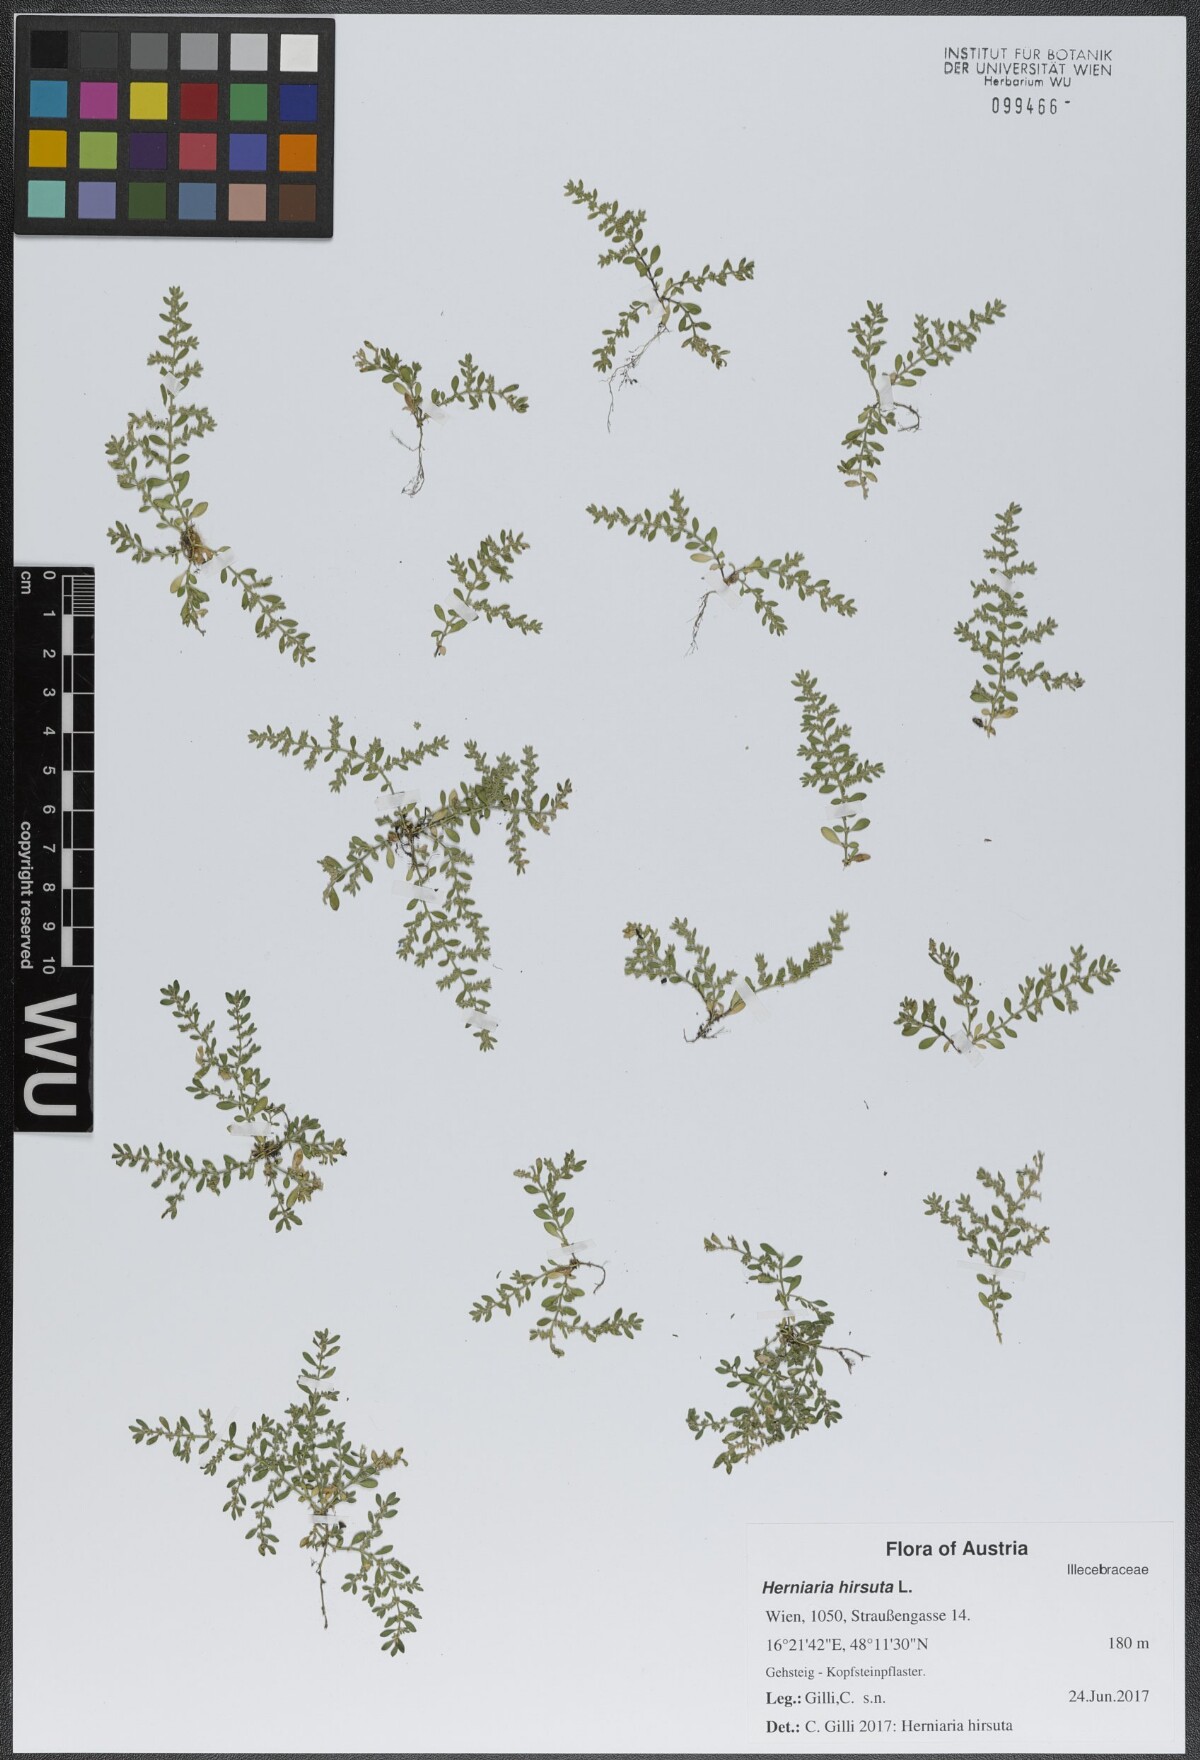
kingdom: Plantae
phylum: Tracheophyta
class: Magnoliopsida
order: Caryophyllales
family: Caryophyllaceae
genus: Herniaria
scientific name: Herniaria hirsuta
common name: Hairy rupturewort
